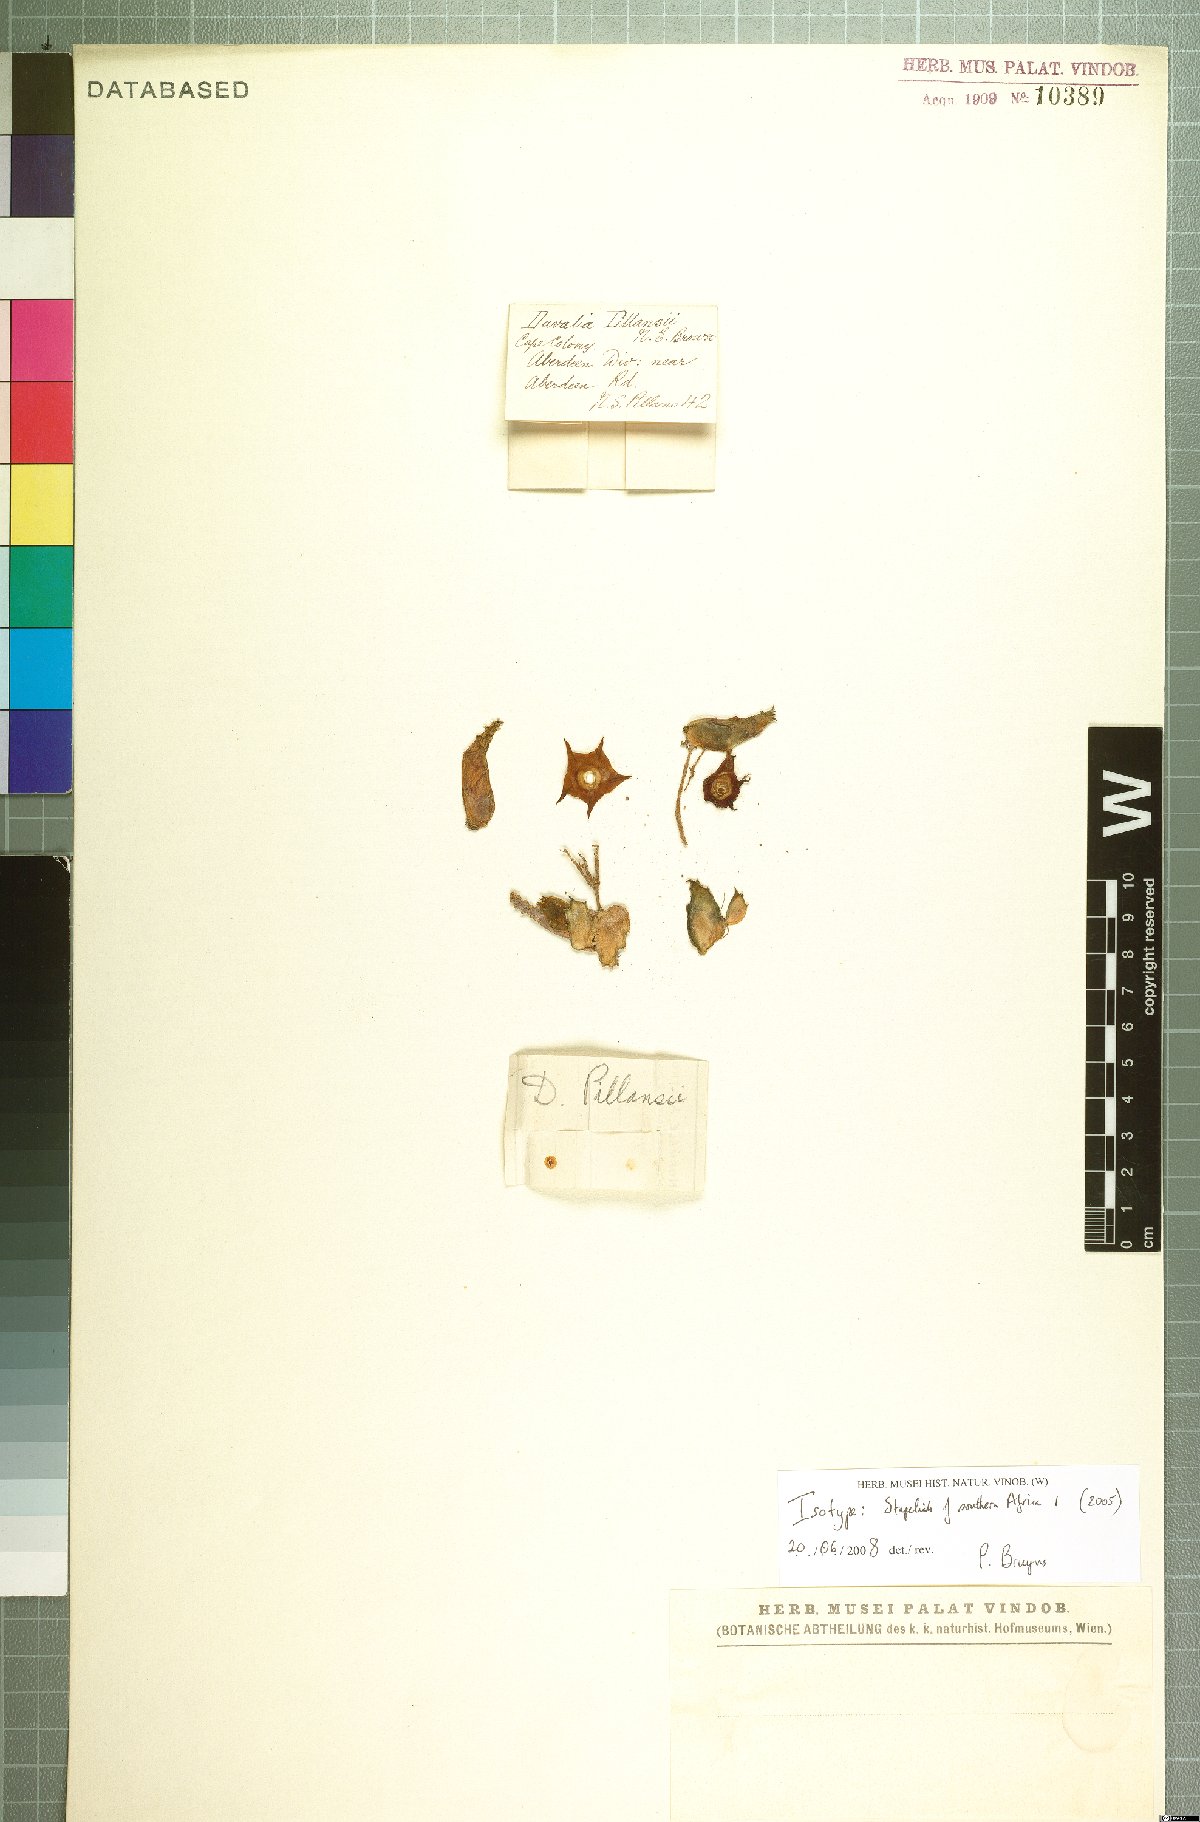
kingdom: Plantae
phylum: Tracheophyta
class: Magnoliopsida
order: Gentianales
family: Asclepiadaceae
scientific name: Asclepiadaceae
